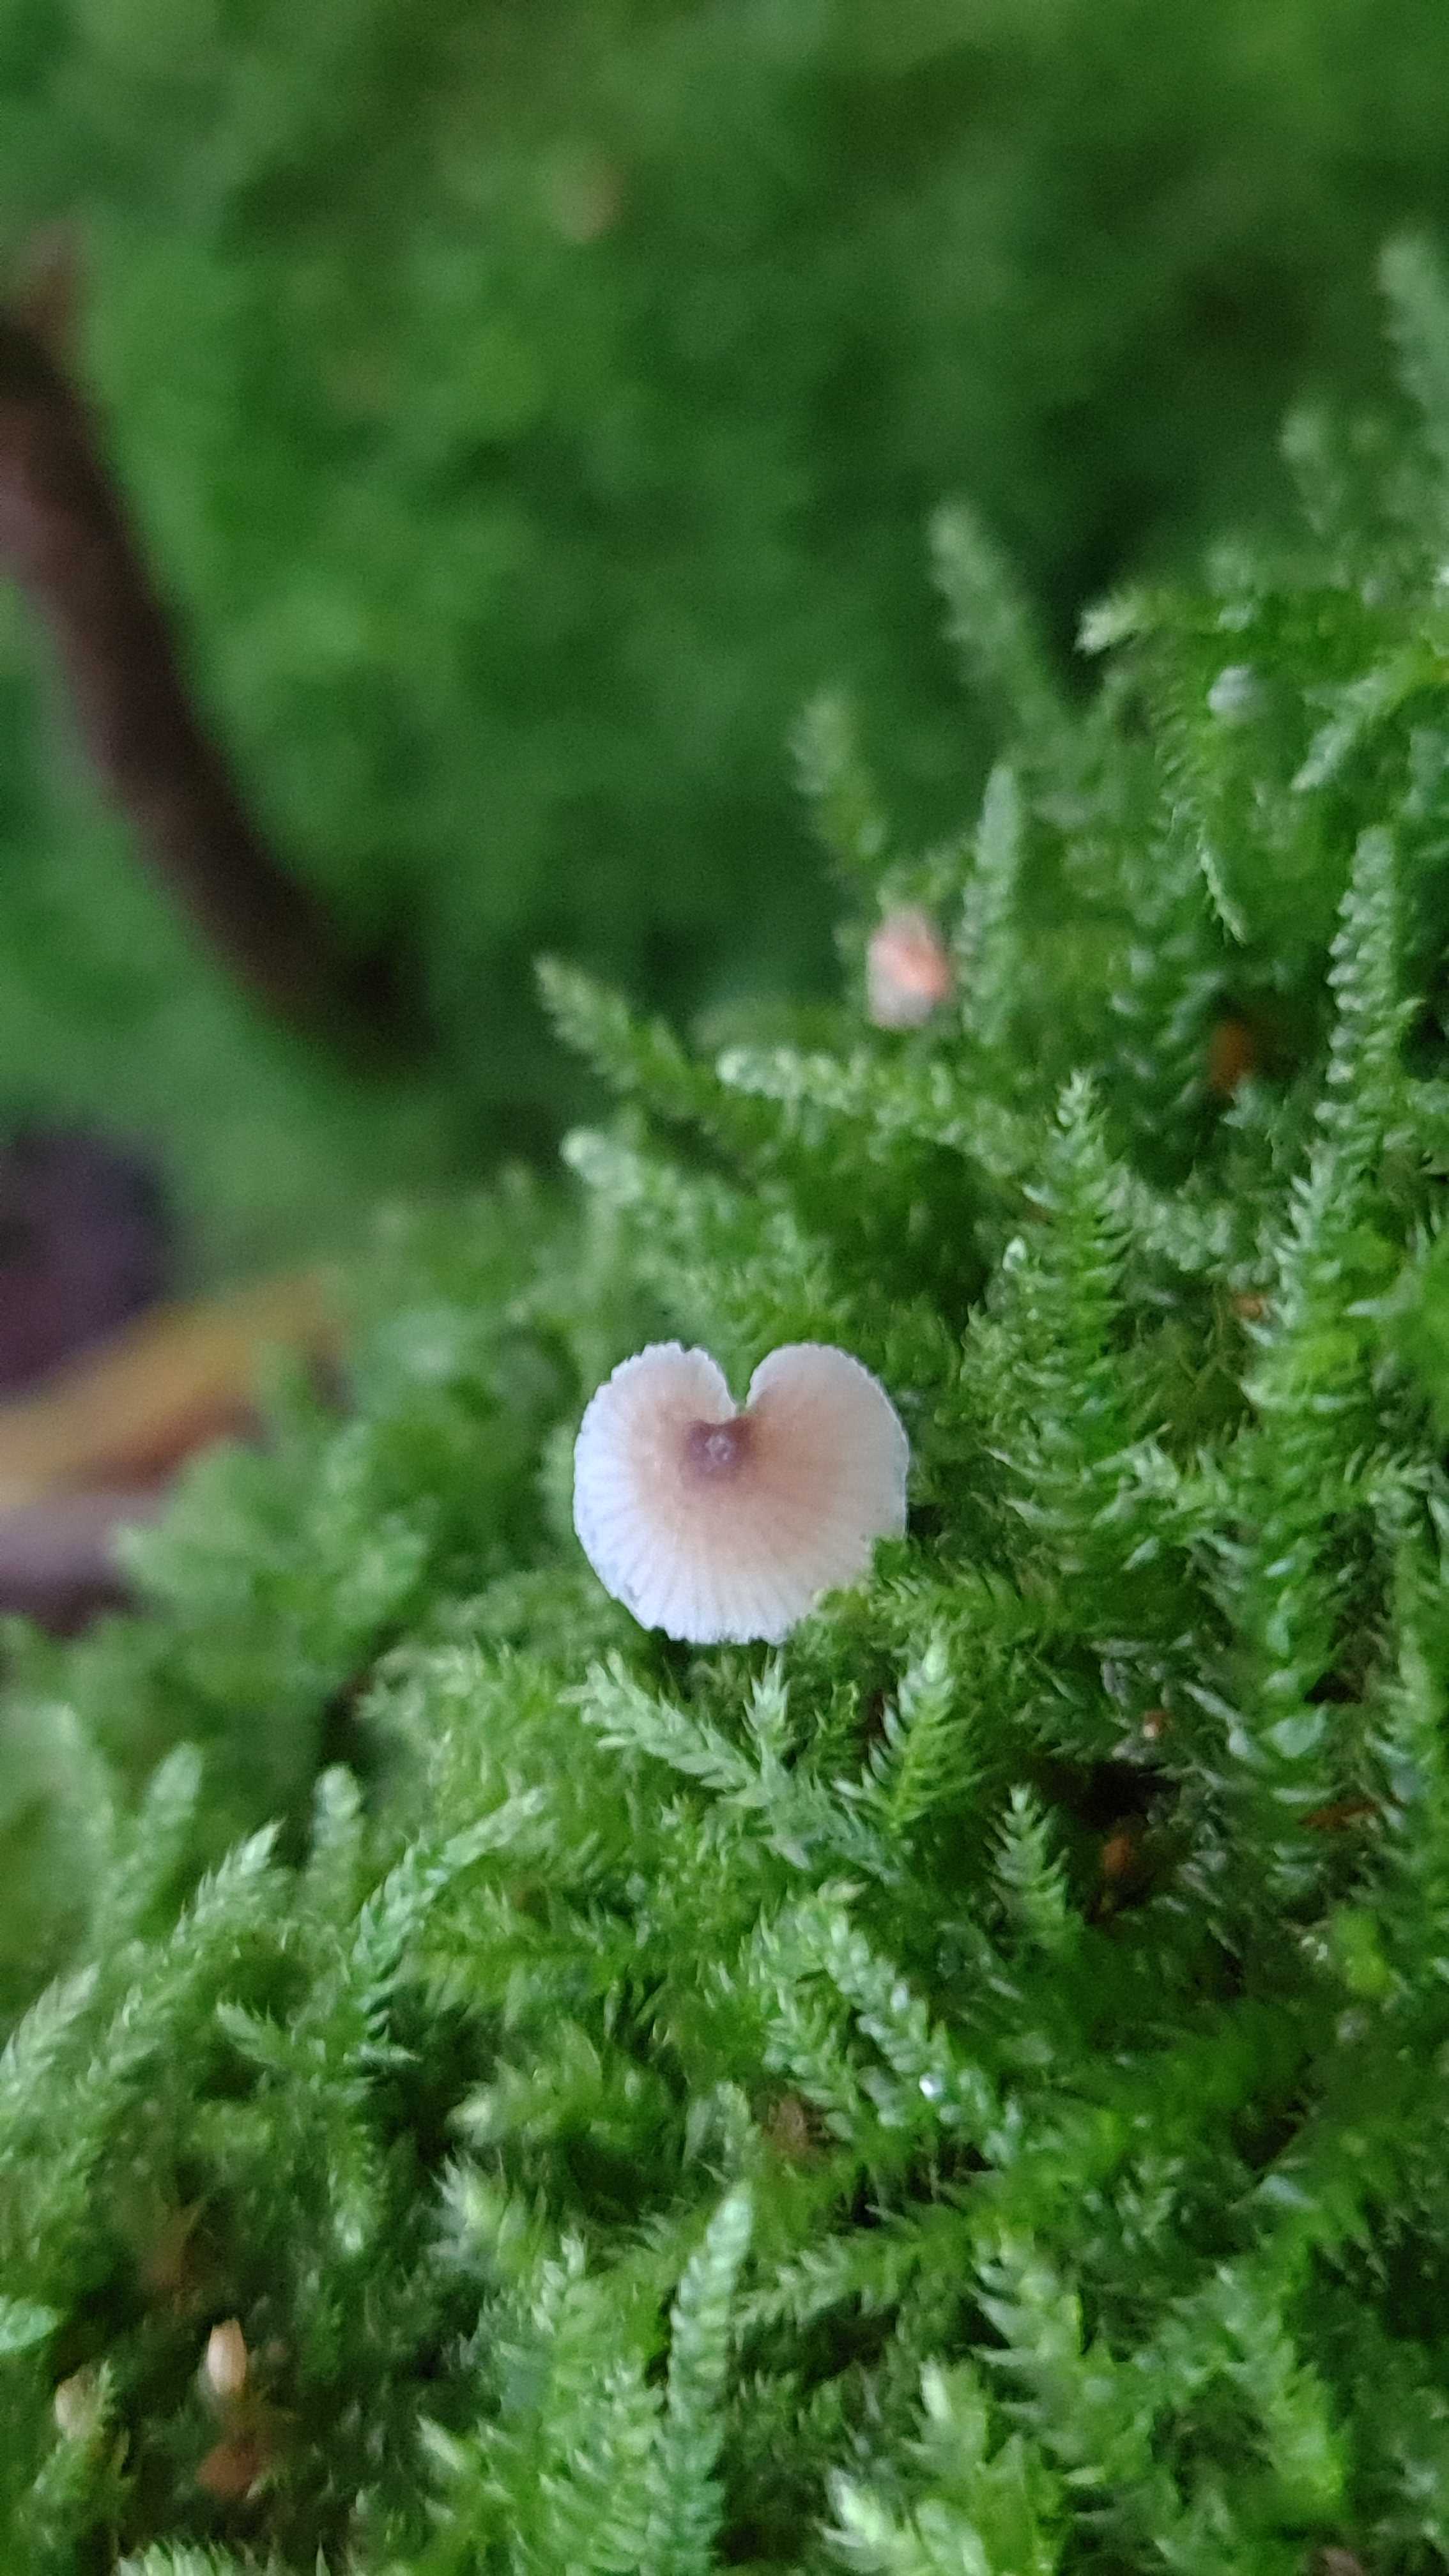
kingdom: Fungi
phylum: Basidiomycota
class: Agaricomycetes
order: Agaricales
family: Porotheleaceae
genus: Phloeomana
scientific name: Phloeomana hiemalis
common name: sen huesvamp
